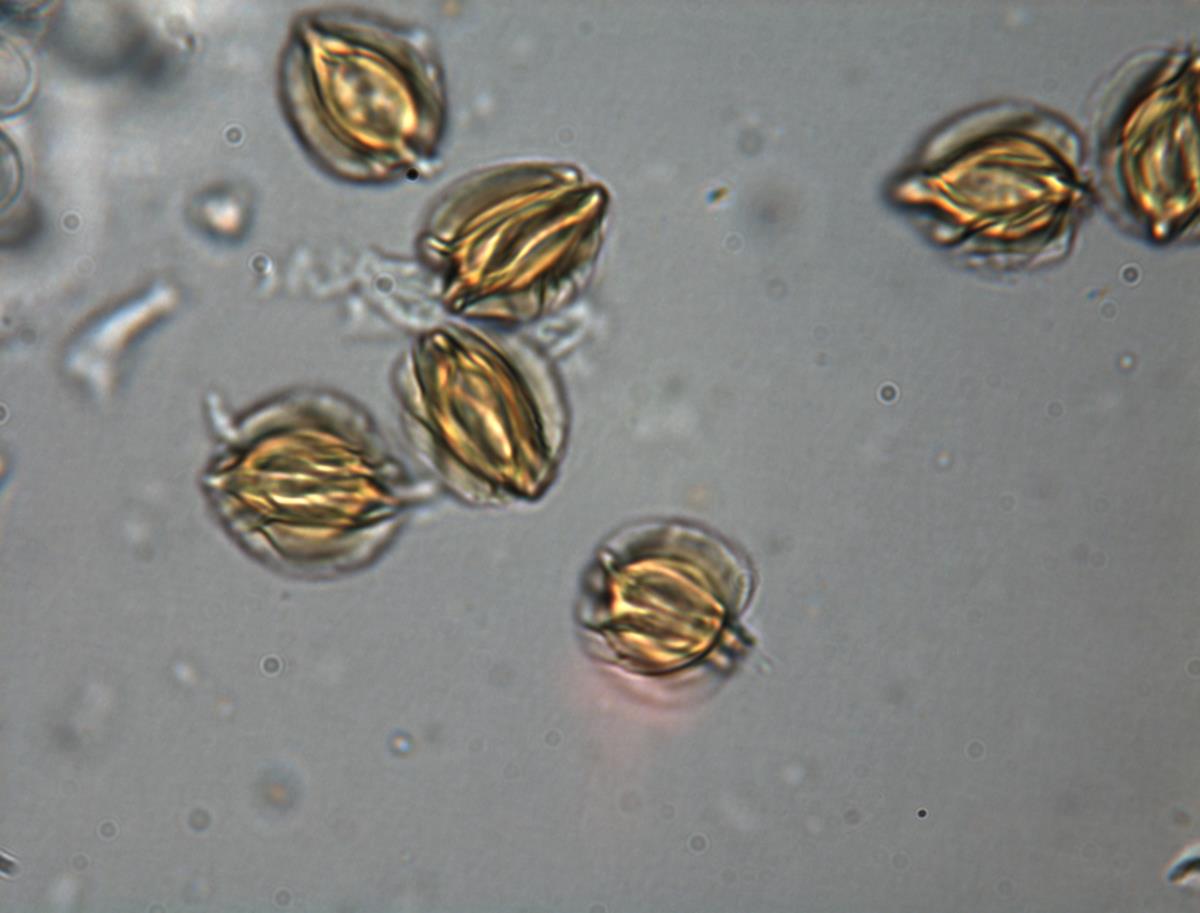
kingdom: Fungi
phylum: Basidiomycota
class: Agaricomycetes
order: Hysterangiales
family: Gallaceaceae
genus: Austrogautieria
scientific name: Austrogautieria
